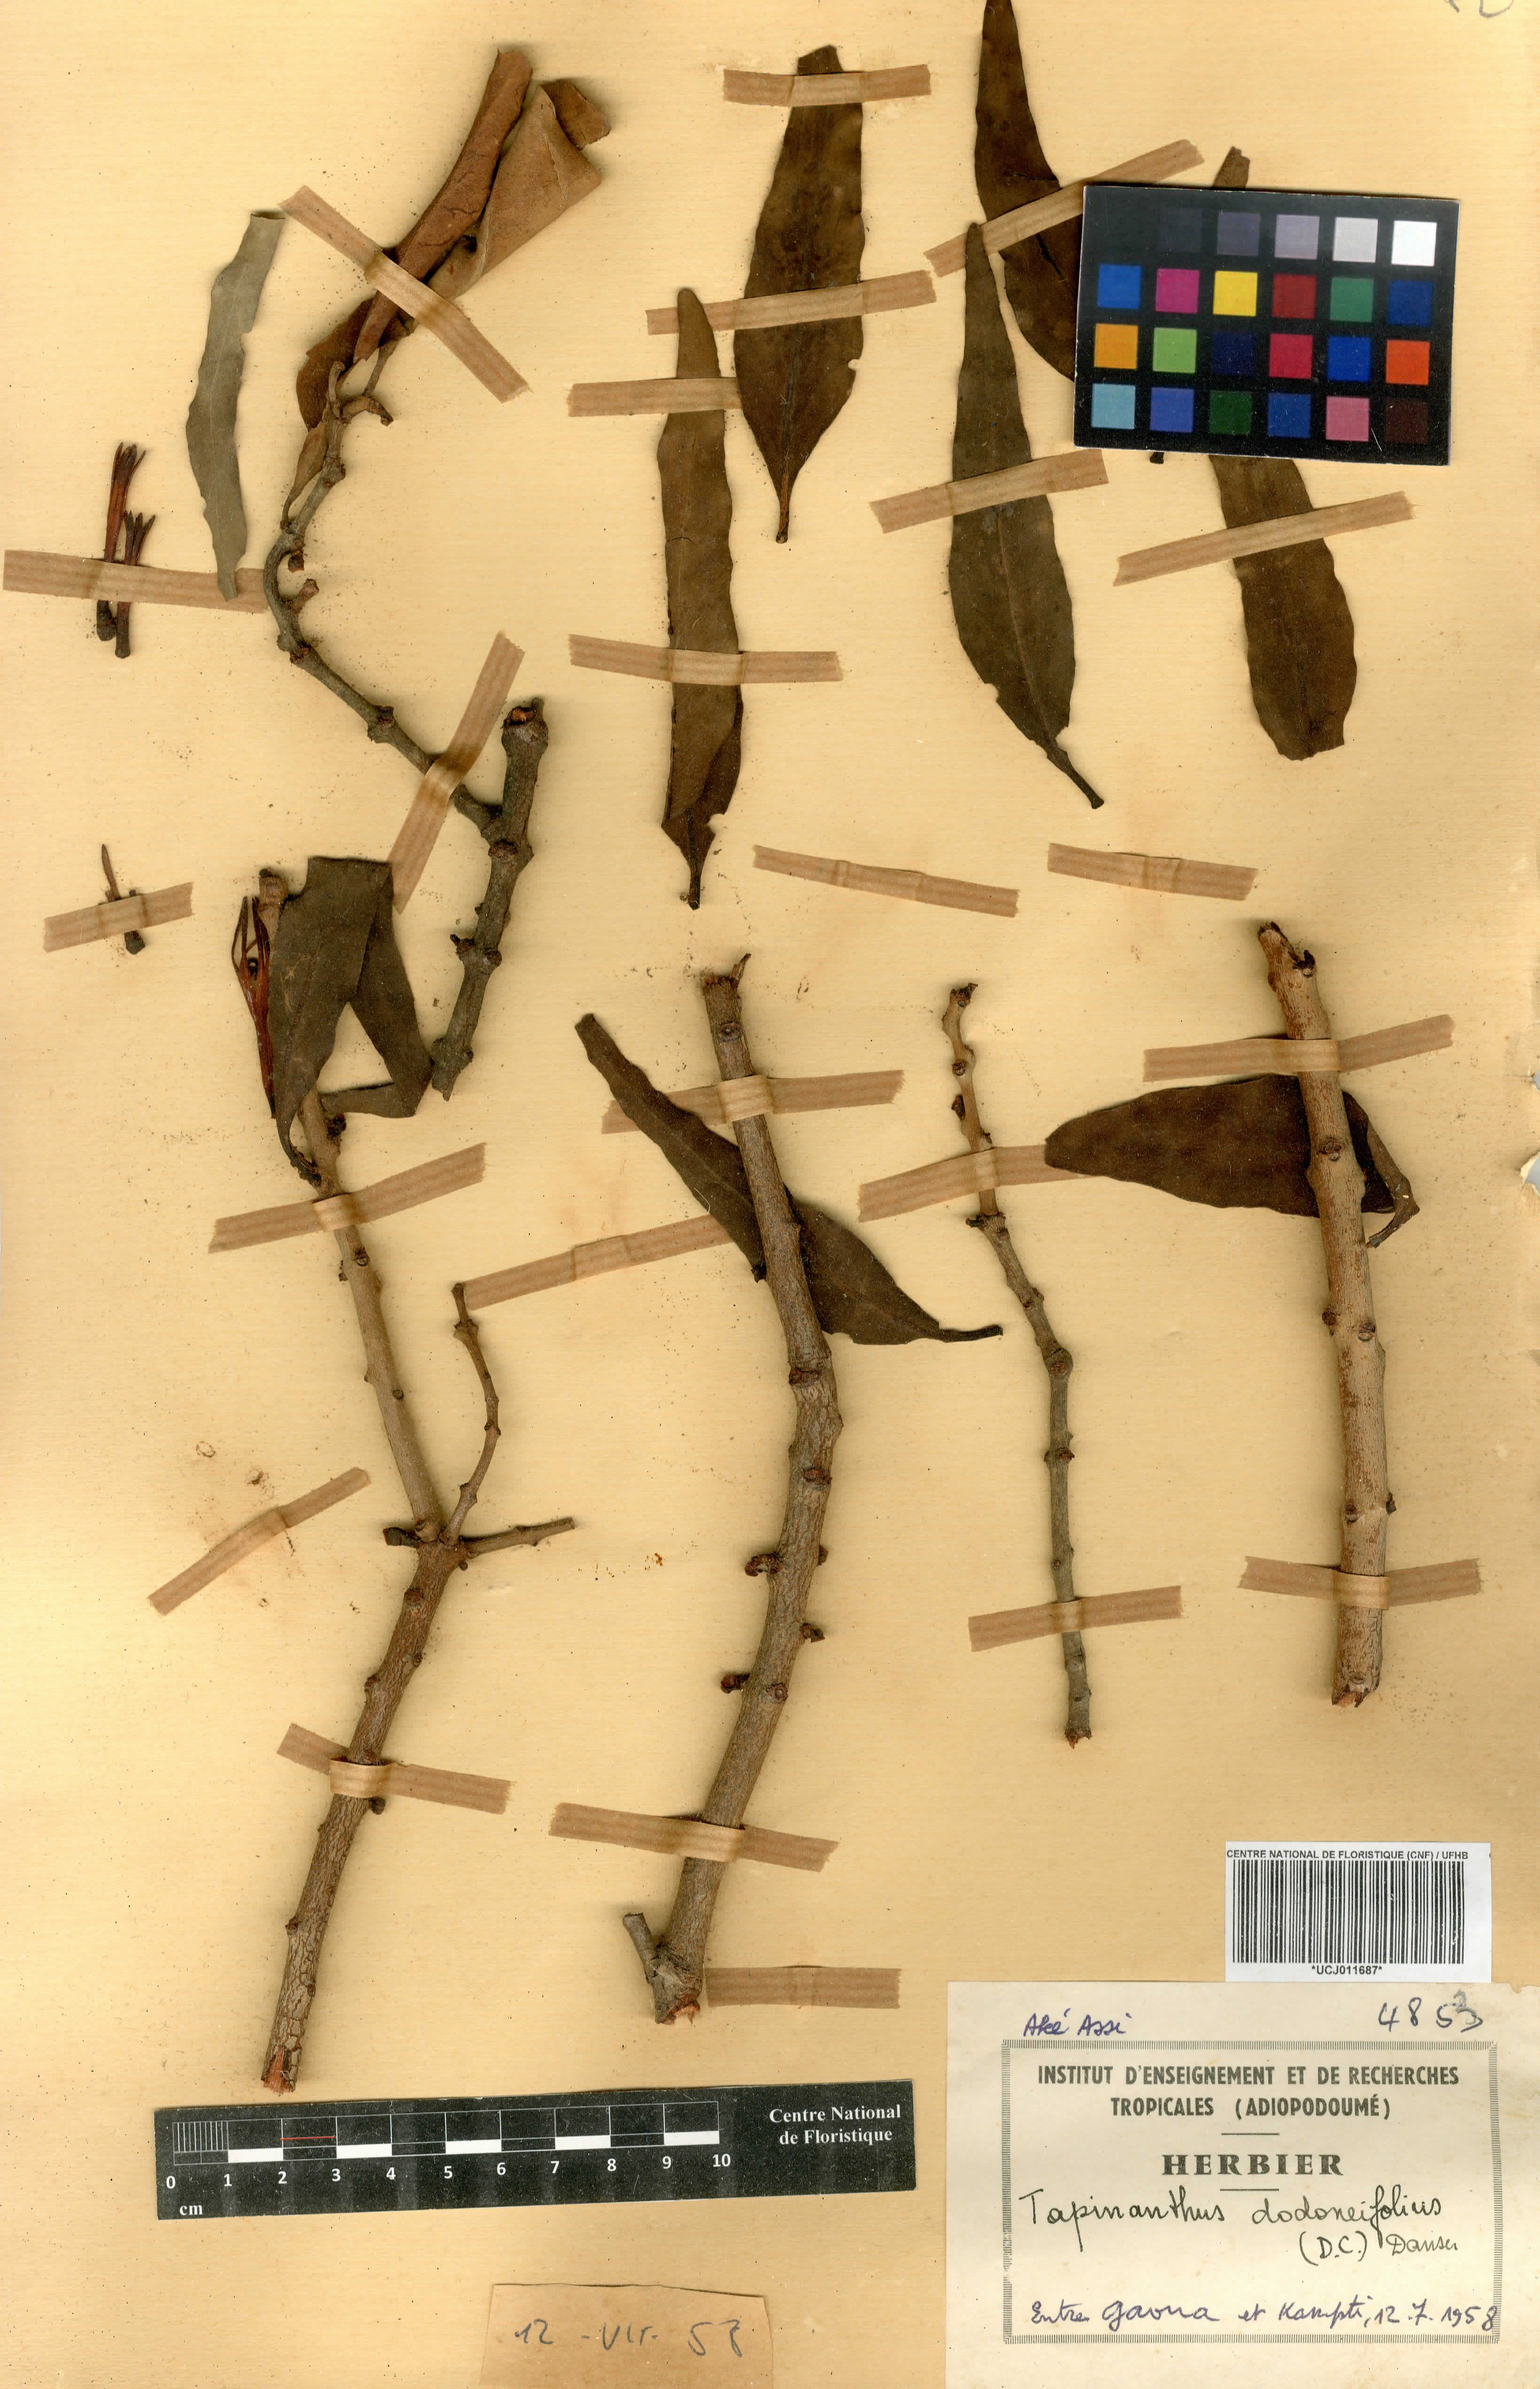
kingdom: Plantae
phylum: Tracheophyta
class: Magnoliopsida
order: Santalales
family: Loranthaceae
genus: Agelanthus
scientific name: Agelanthus dodoneifolius
